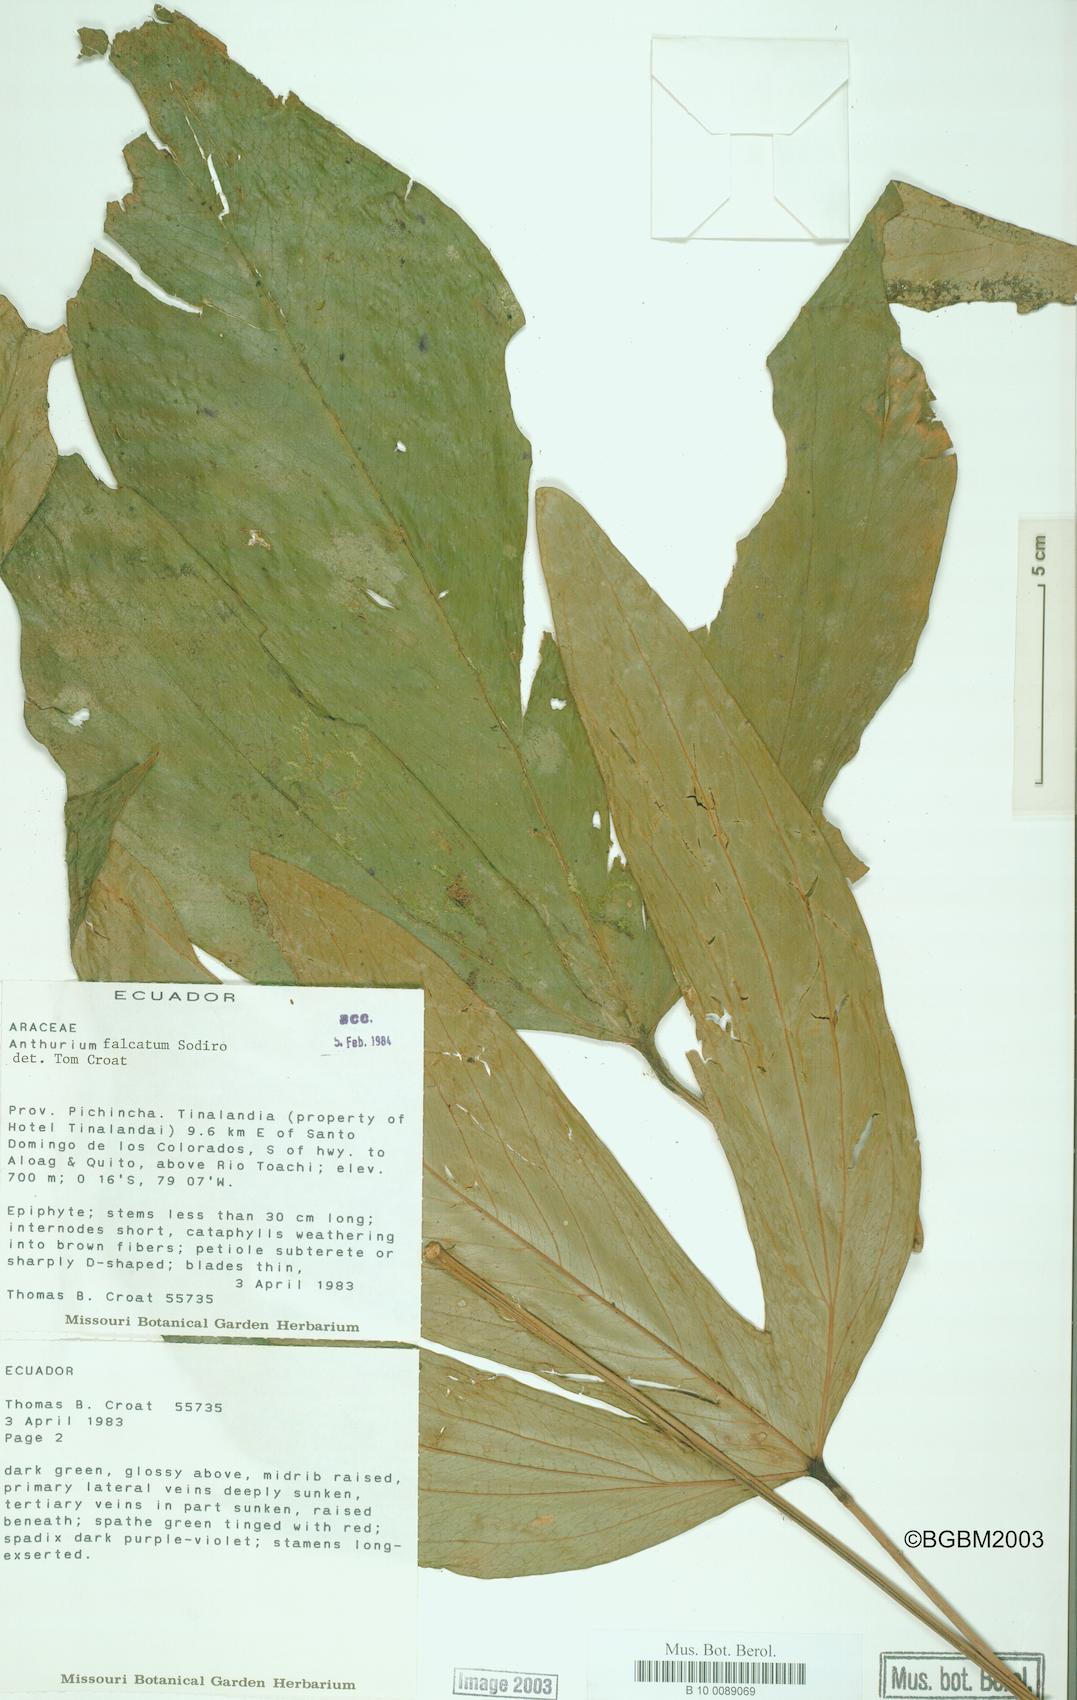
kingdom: Plantae
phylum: Tracheophyta
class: Liliopsida
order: Alismatales
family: Araceae
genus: Anthurium
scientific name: Anthurium rimbachii
